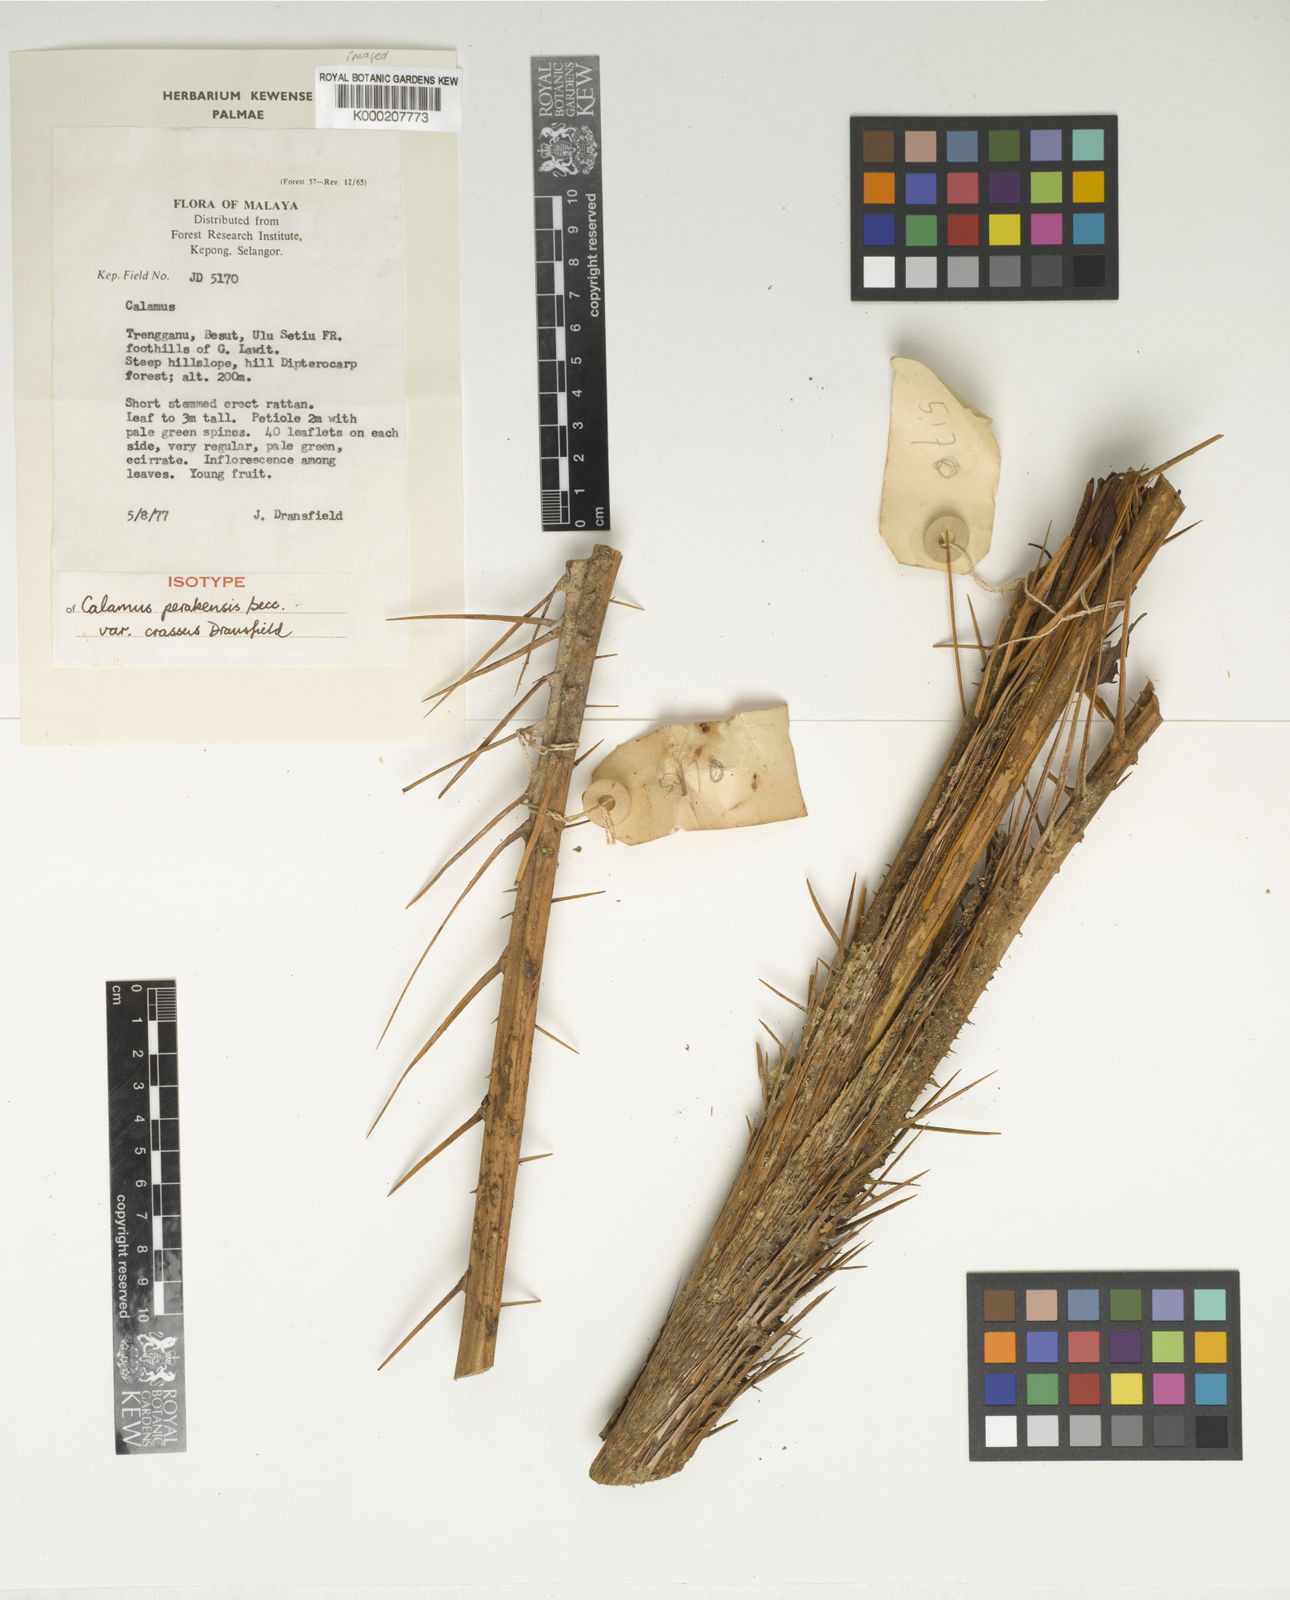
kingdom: Plantae
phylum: Tracheophyta
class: Liliopsida
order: Arecales
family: Arecaceae
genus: Calamus
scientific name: Calamus perakensis
